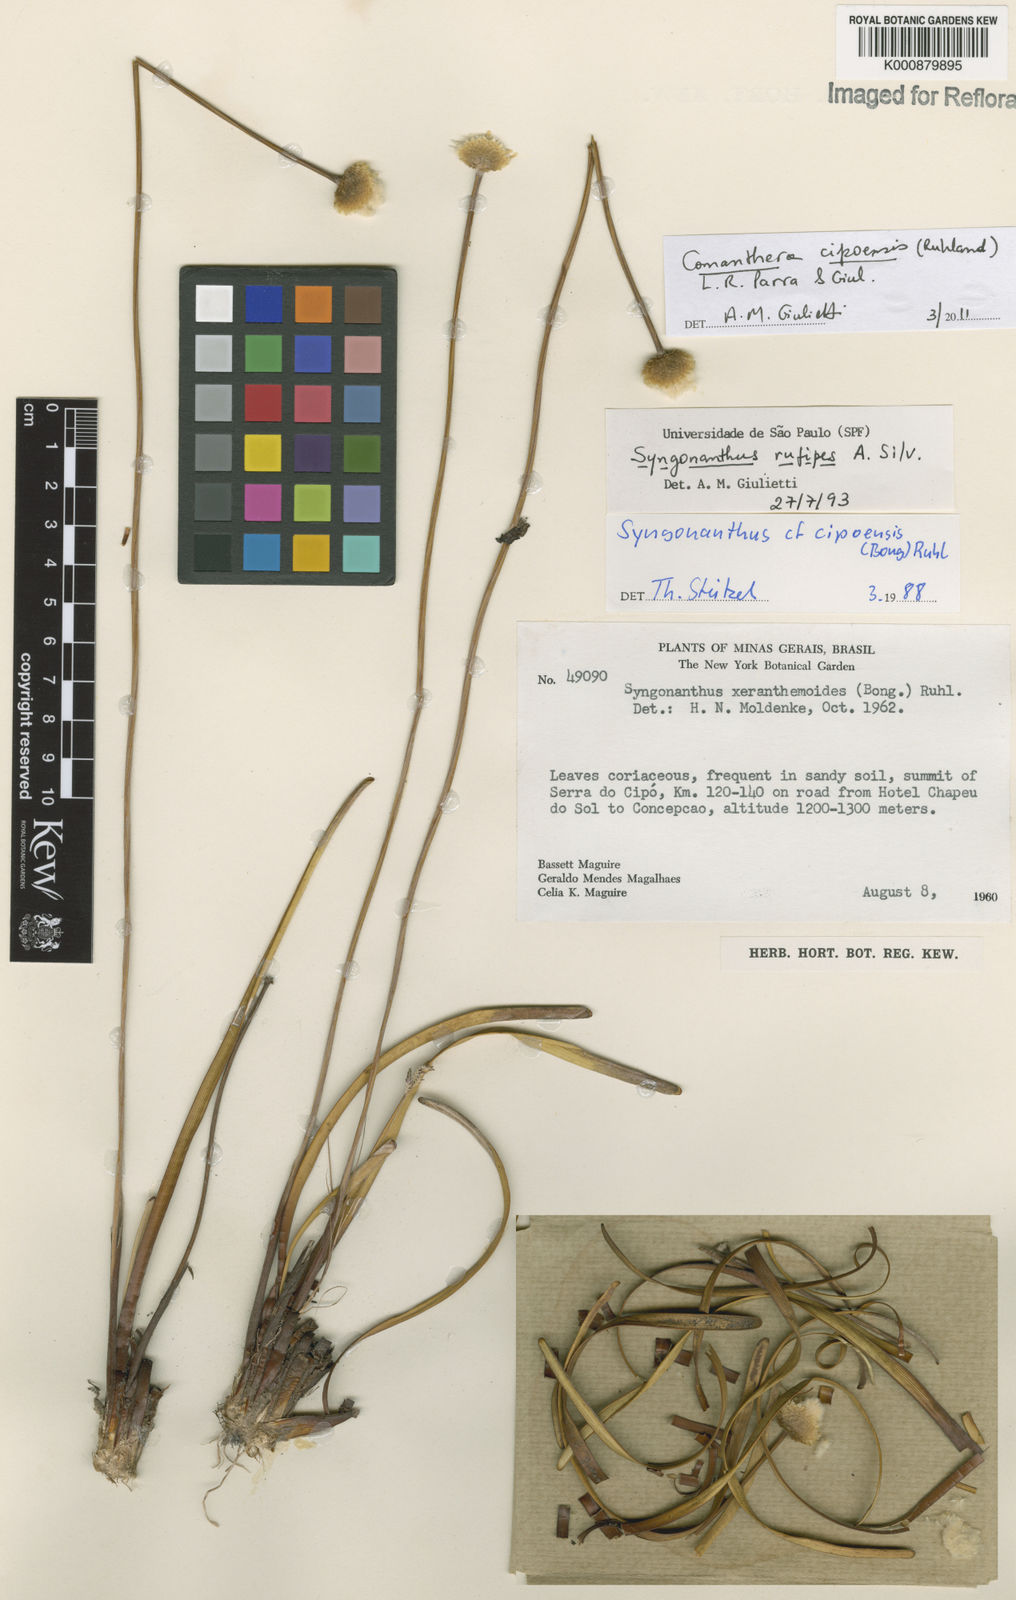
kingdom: Plantae
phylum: Tracheophyta
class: Liliopsida
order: Poales
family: Eriocaulaceae
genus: Comanthera
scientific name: Comanthera cipoensis
